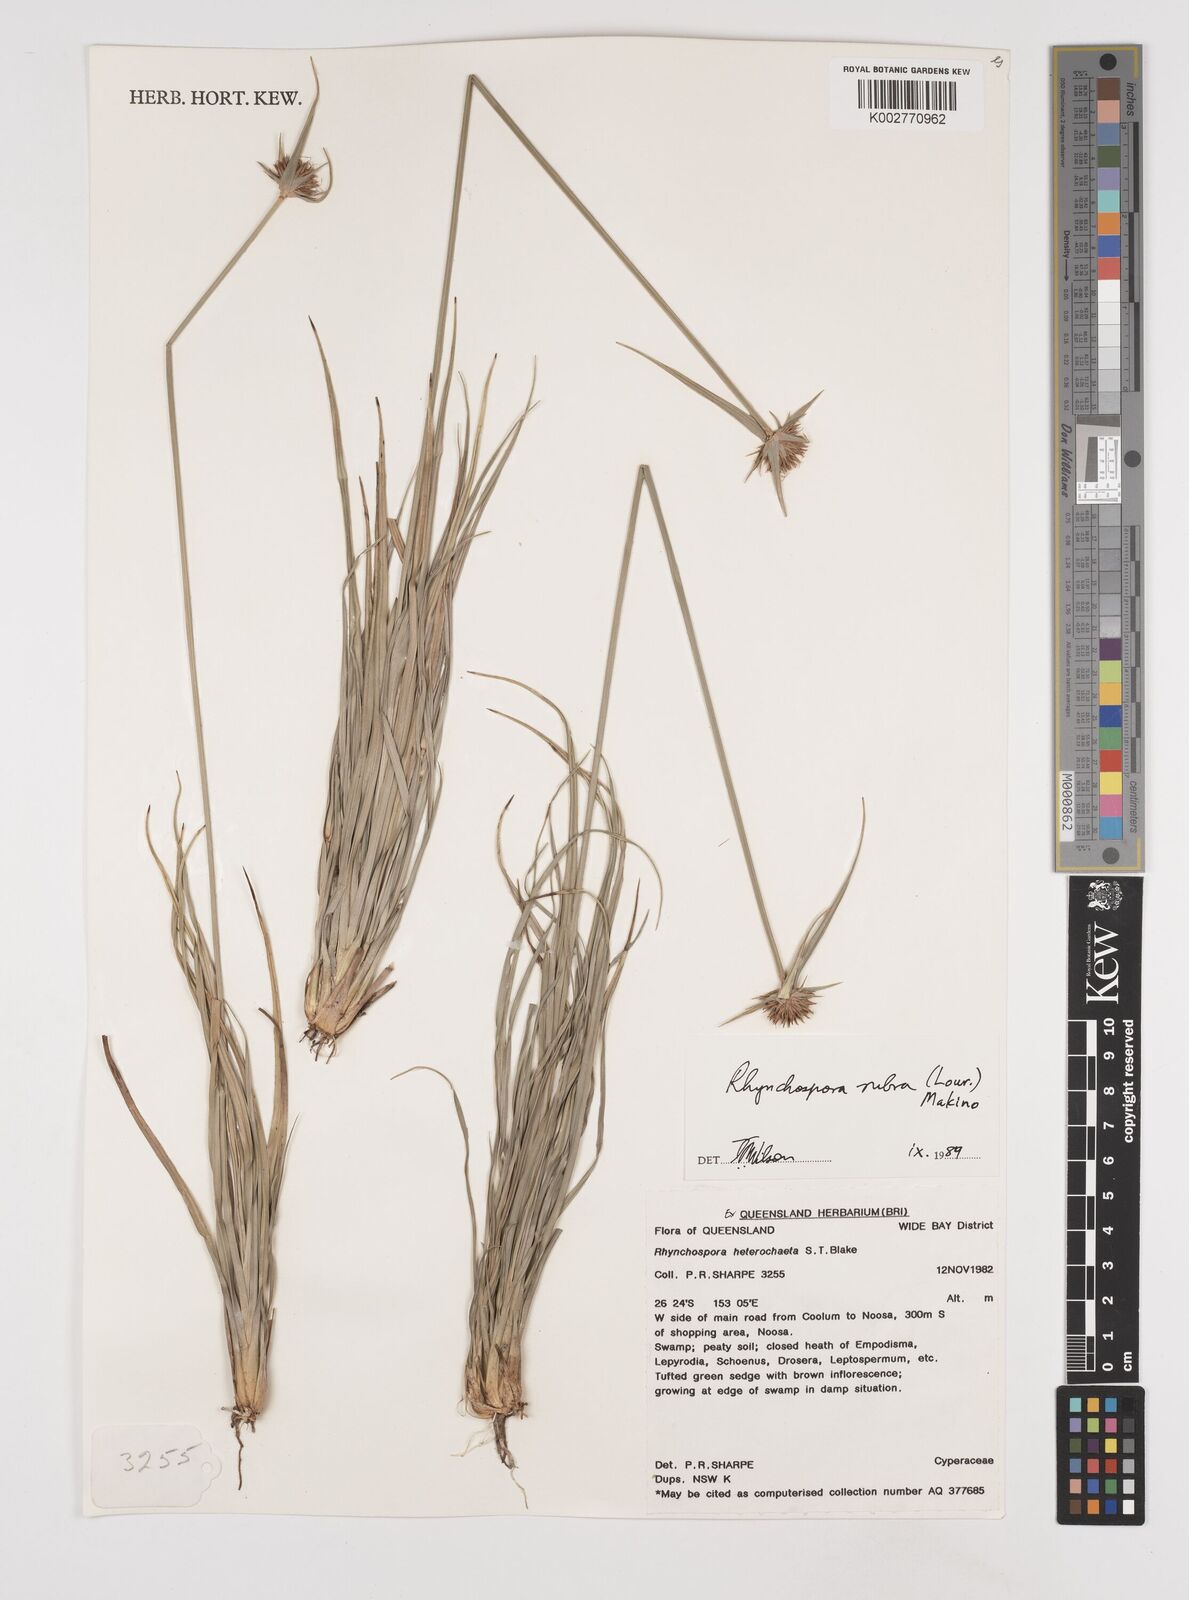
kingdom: Plantae
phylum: Tracheophyta
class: Liliopsida
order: Poales
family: Cyperaceae
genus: Rhynchospora
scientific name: Rhynchospora rubra
